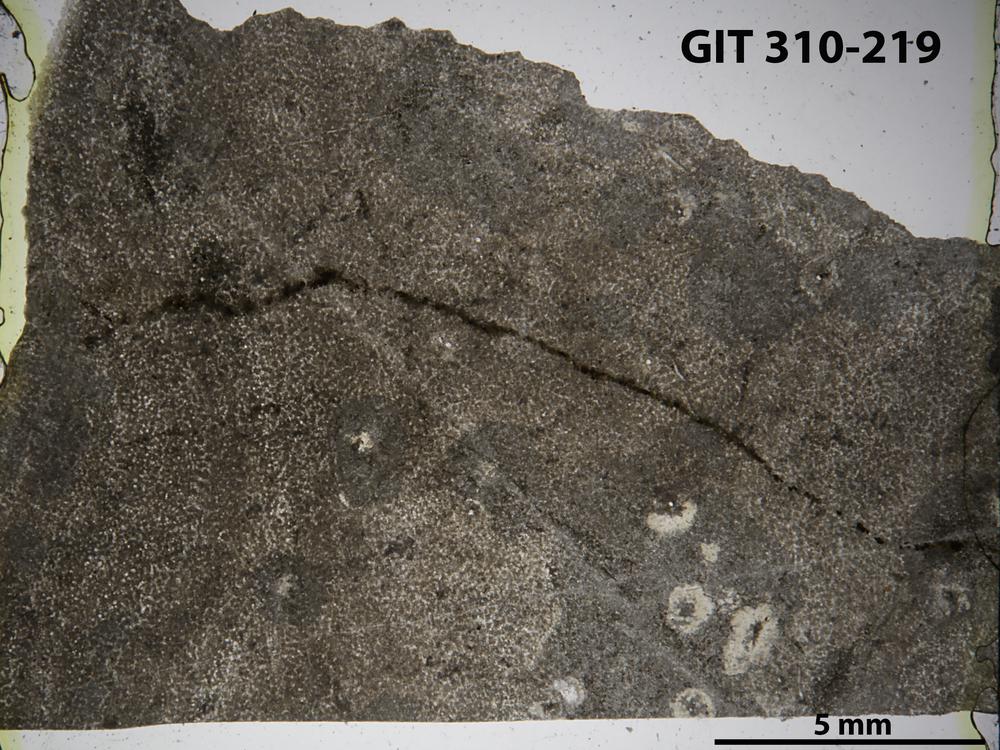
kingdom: Animalia
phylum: Porifera
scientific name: Porifera
